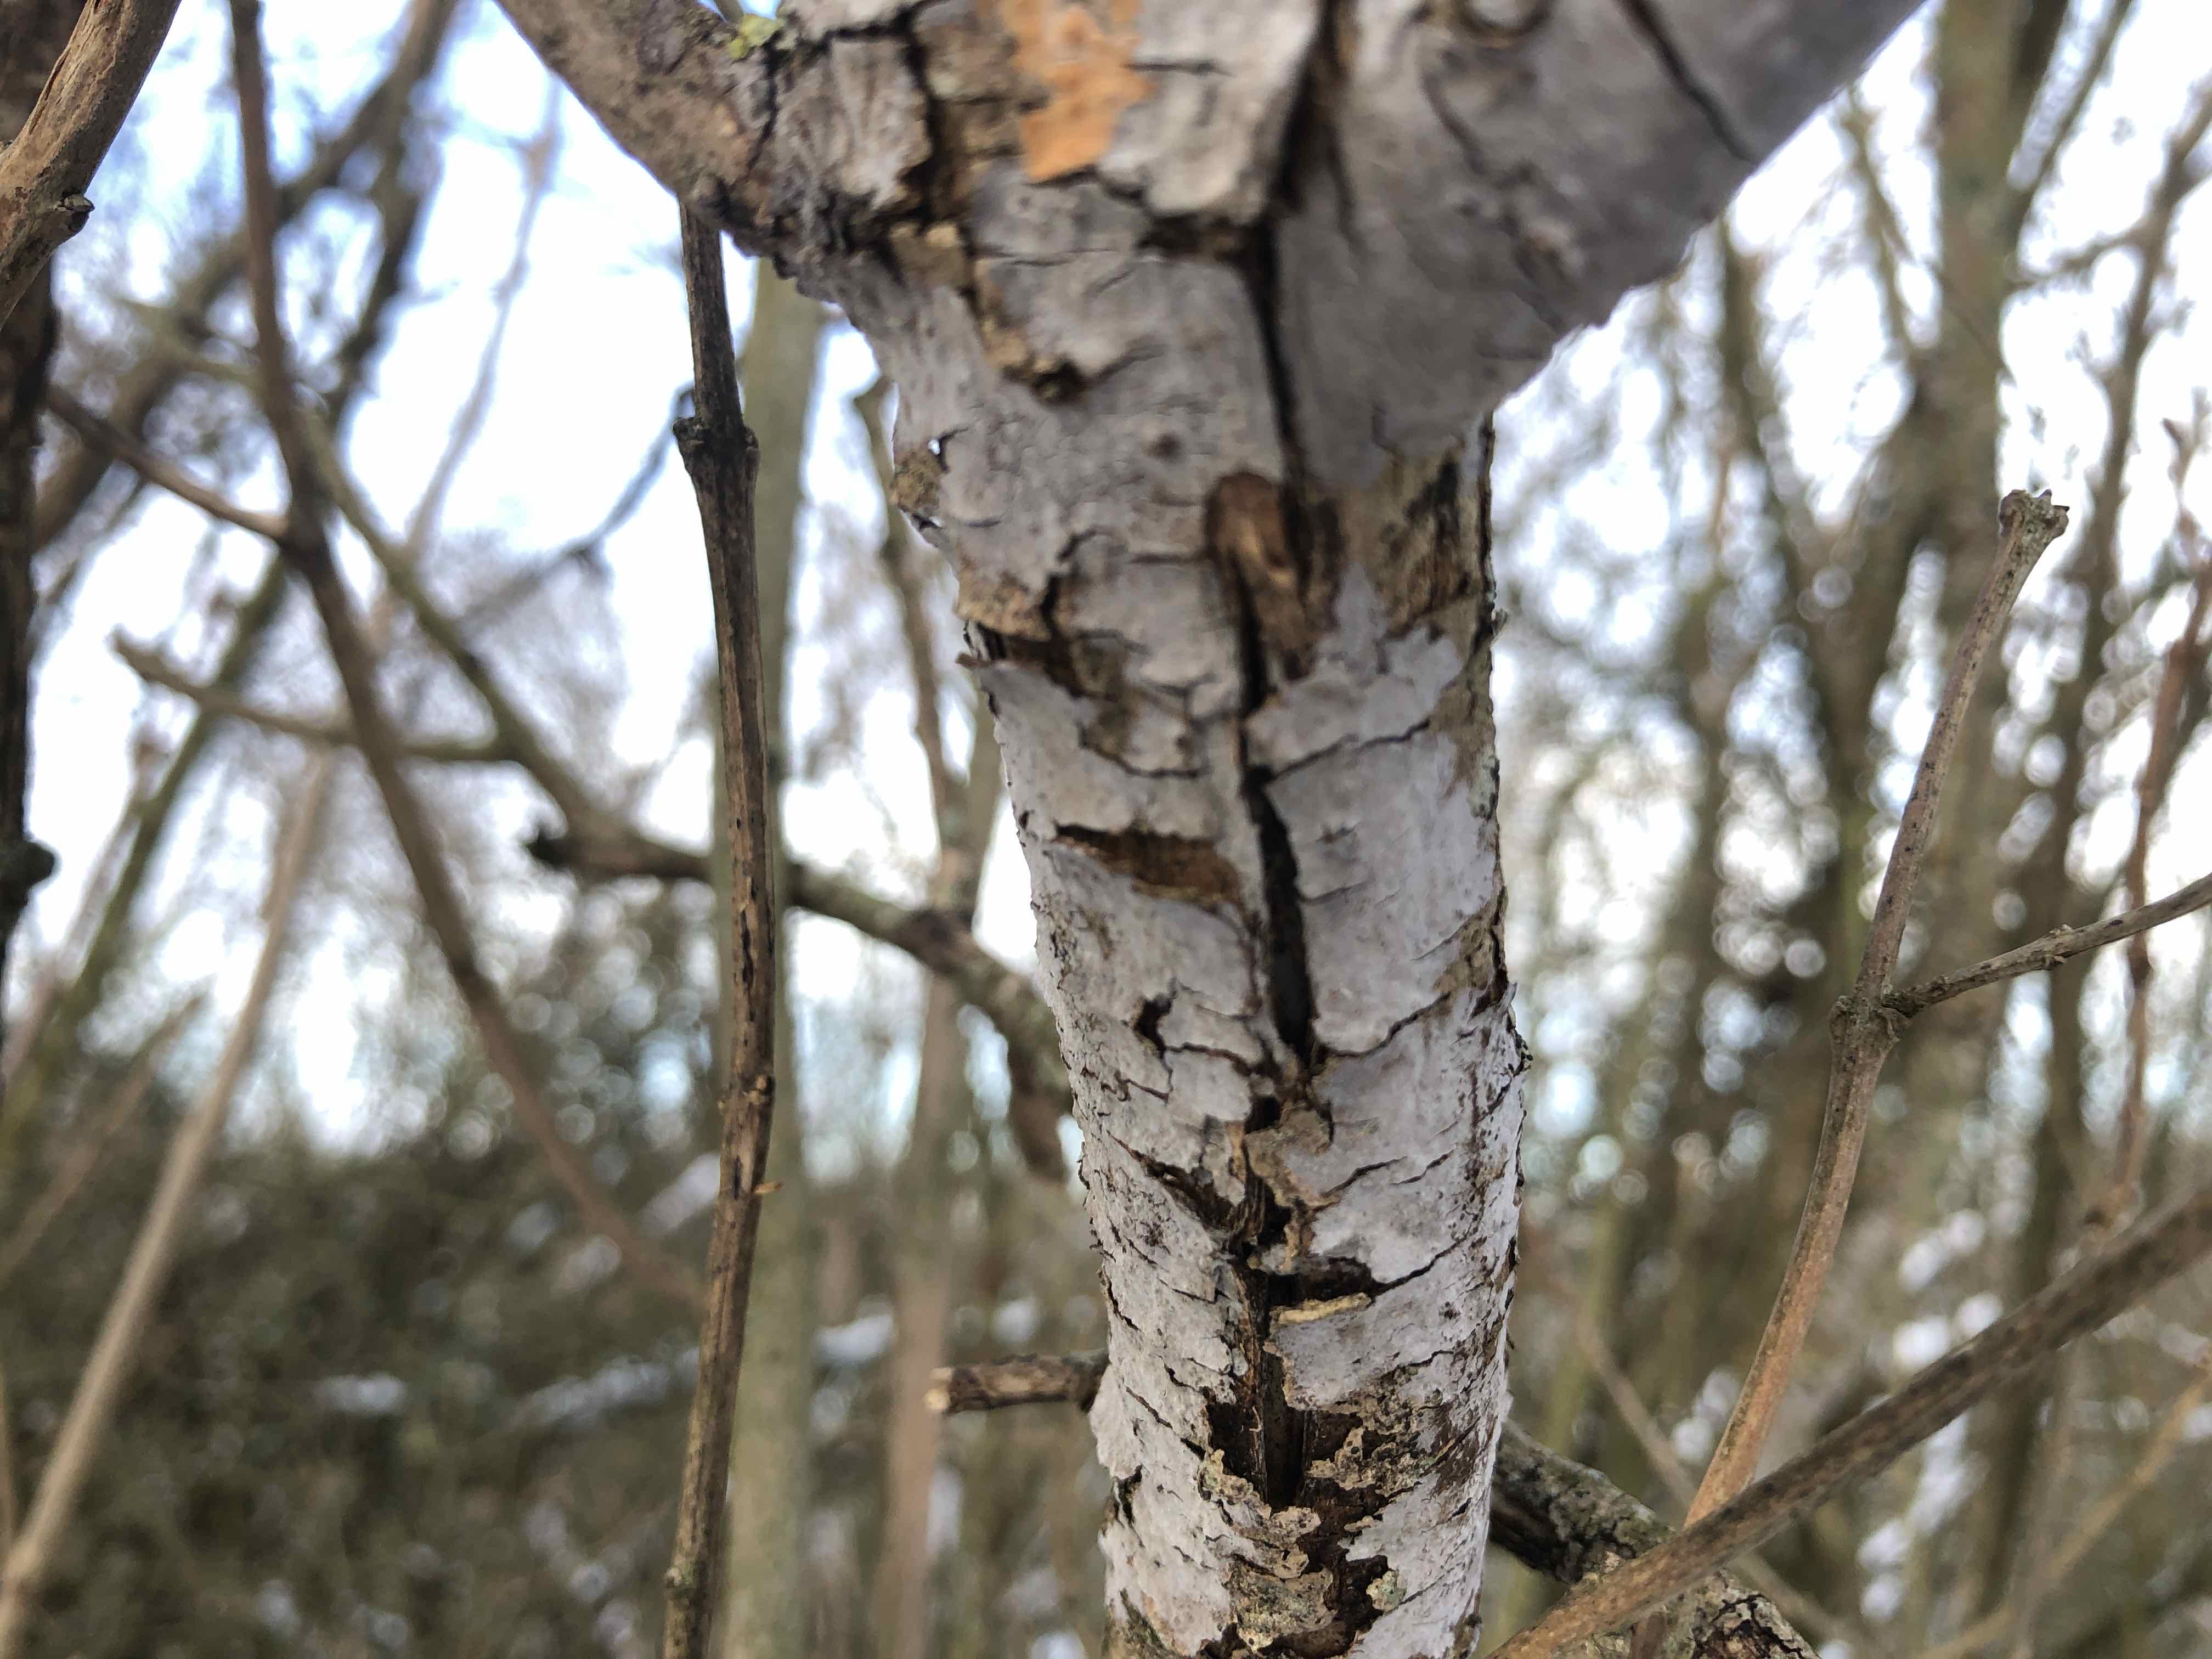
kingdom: Fungi
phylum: Basidiomycota
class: Agaricomycetes
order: Russulales
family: Peniophoraceae
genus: Peniophora
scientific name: Peniophora lycii
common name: grynet voksskind
